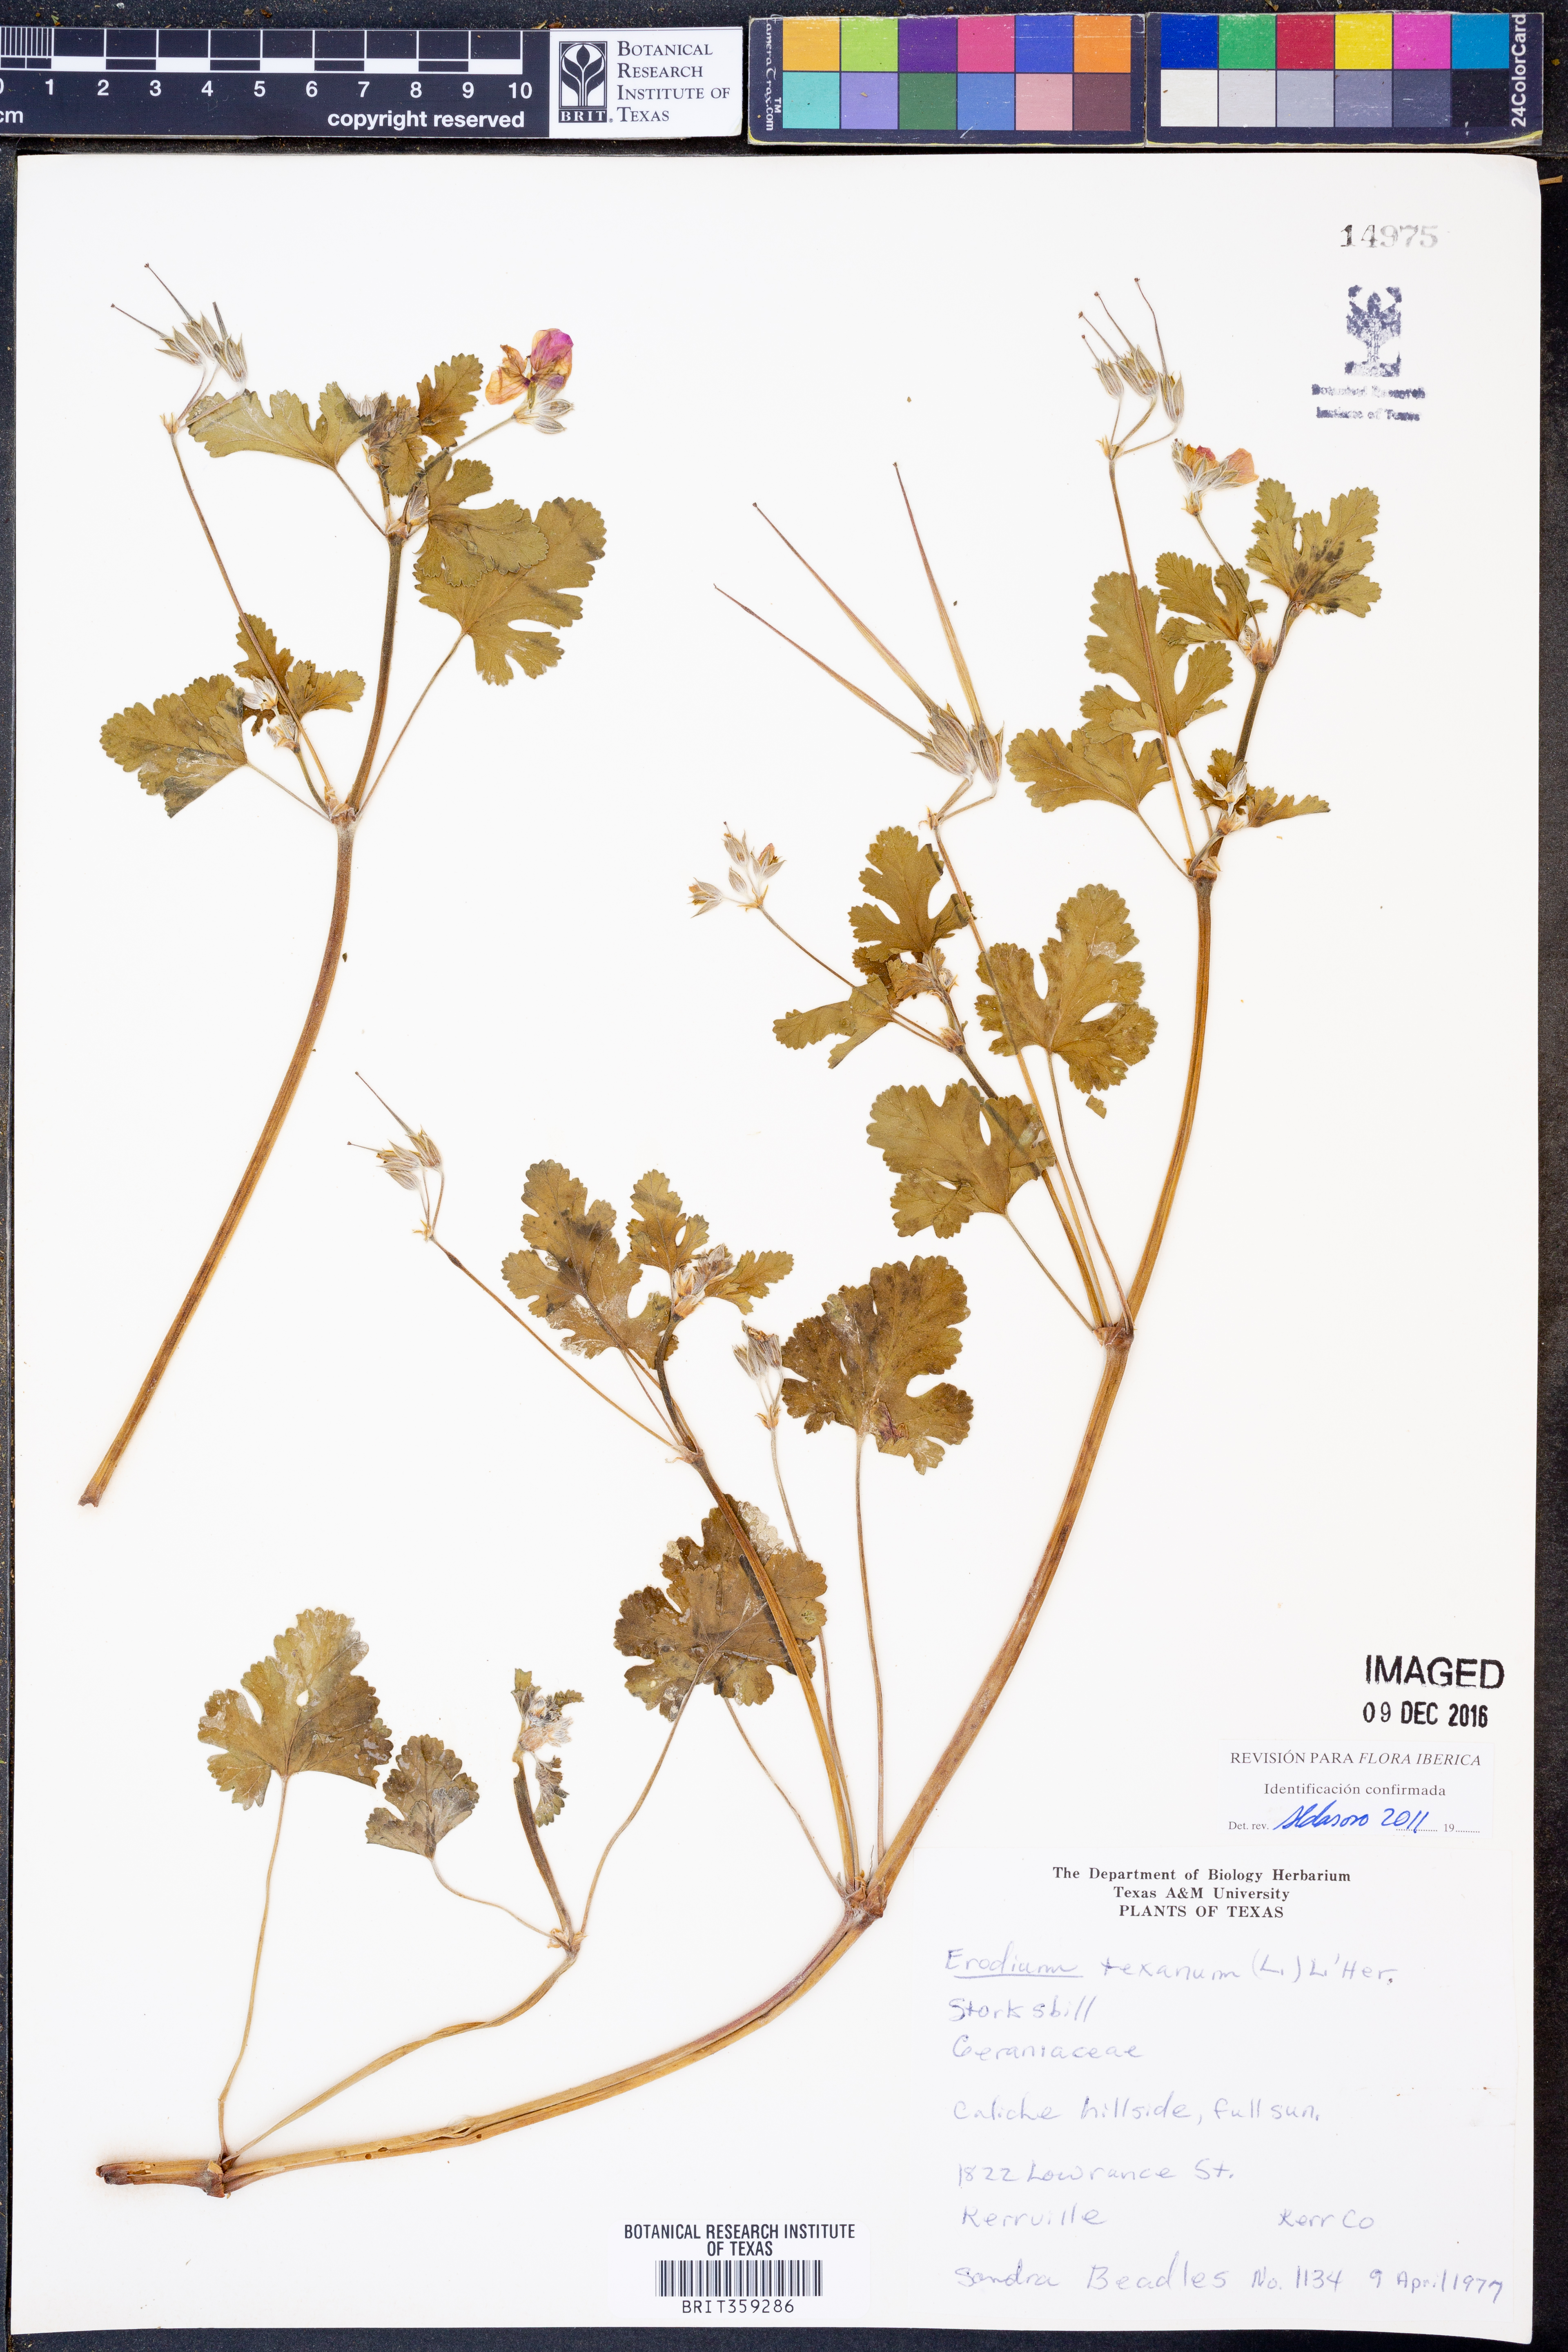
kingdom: Plantae
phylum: Tracheophyta
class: Magnoliopsida
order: Geraniales
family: Geraniaceae
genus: Erodium
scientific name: Erodium texanum
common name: Texas stork's-bill
